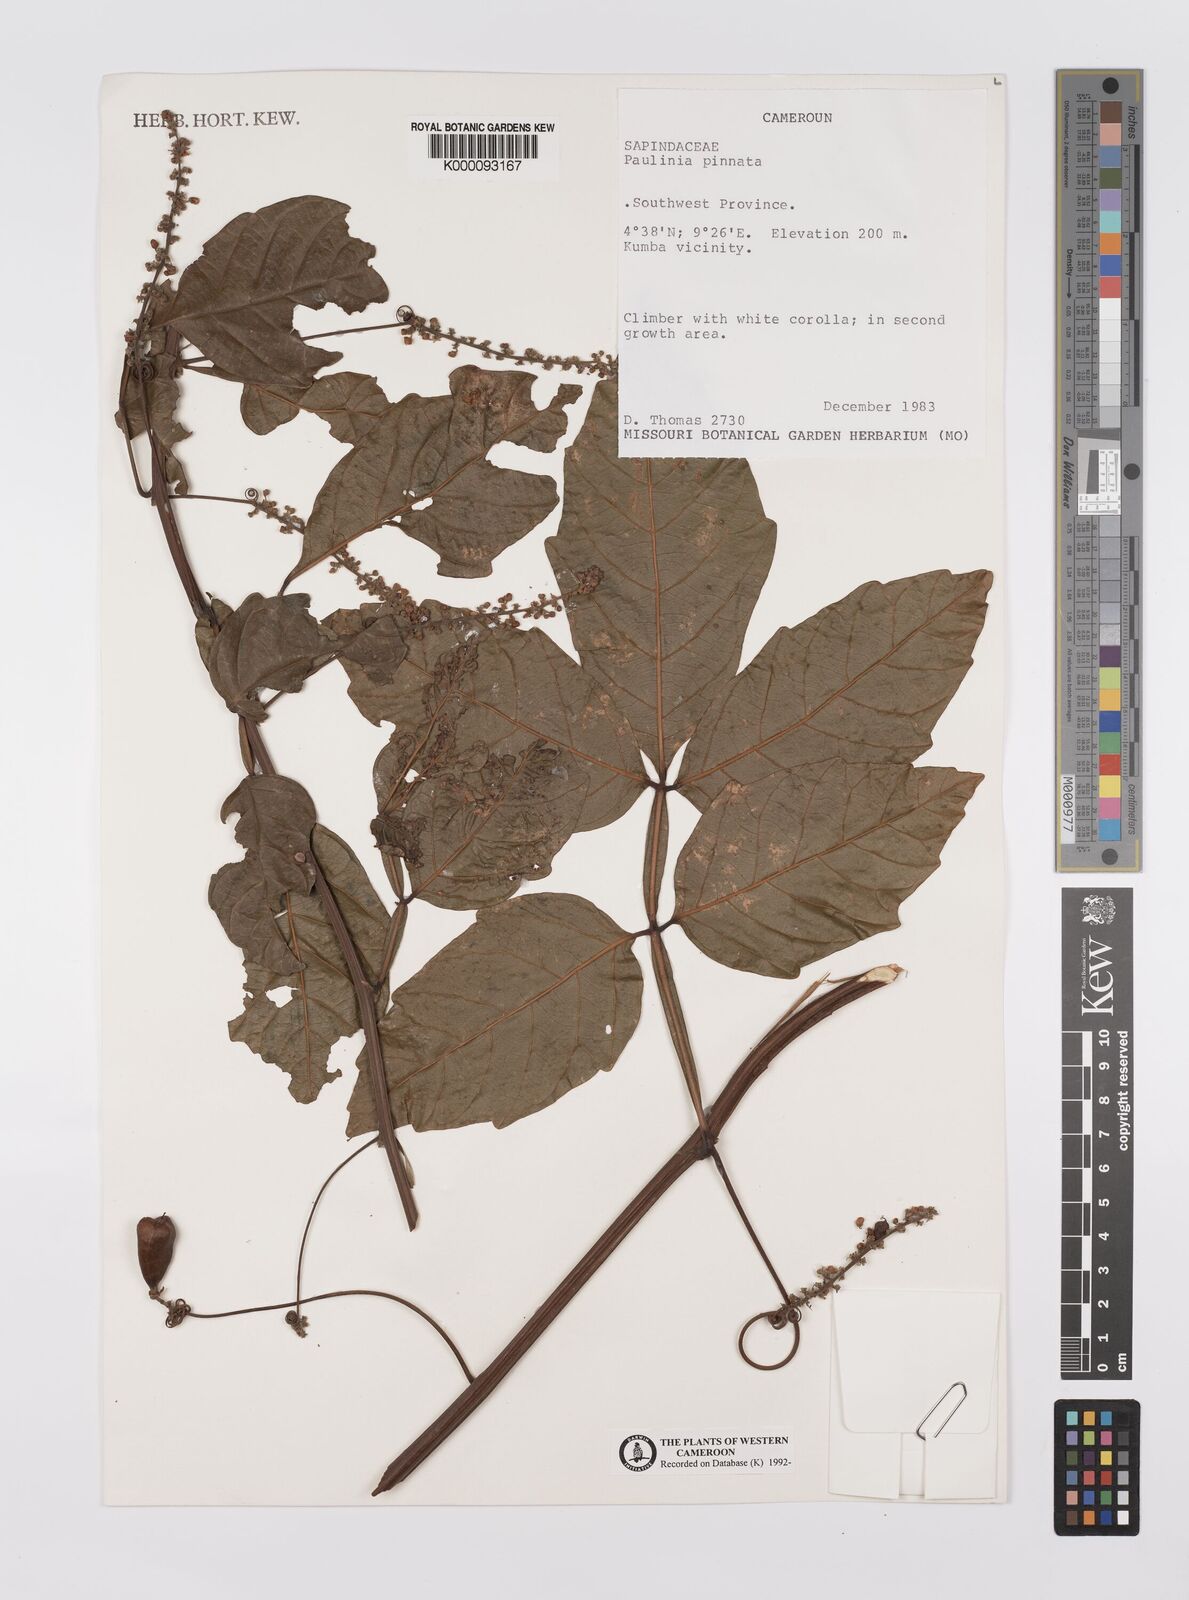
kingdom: Plantae
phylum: Tracheophyta
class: Magnoliopsida
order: Sapindales
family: Sapindaceae
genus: Paullinia
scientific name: Paullinia pinnata
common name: Barbasco
